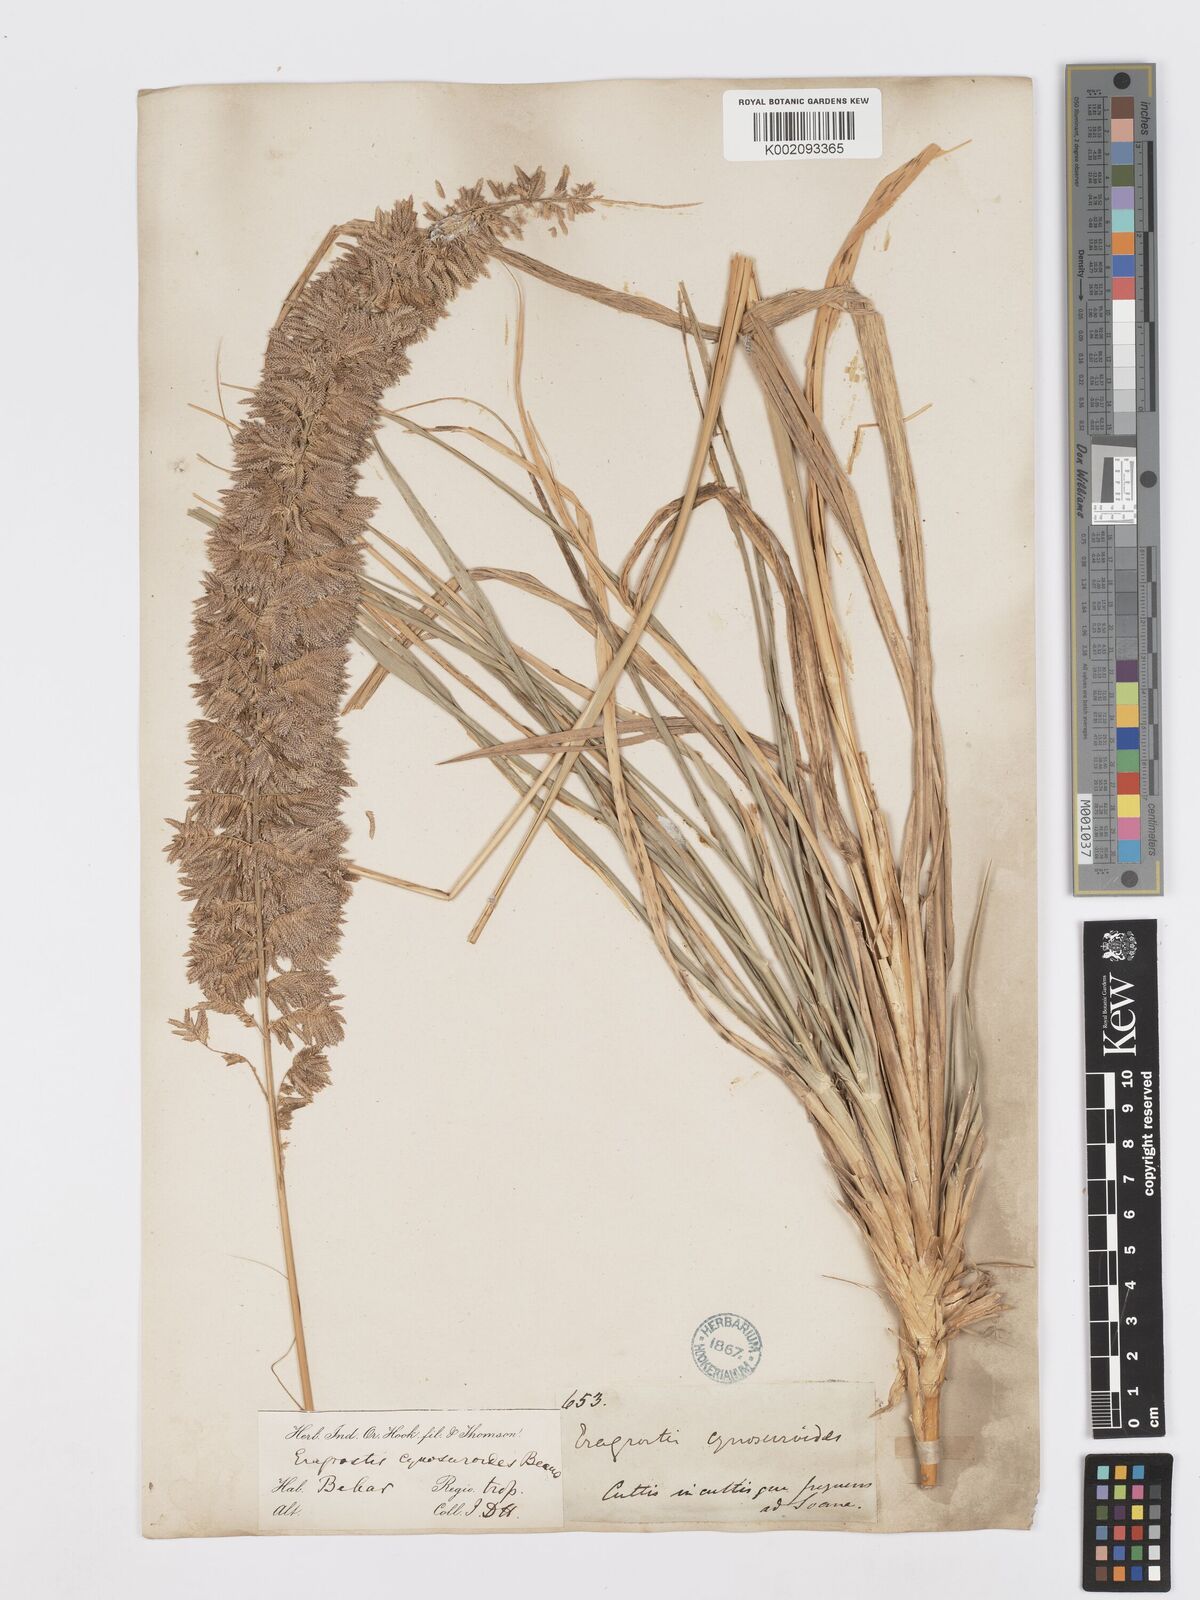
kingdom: Plantae
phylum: Tracheophyta
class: Liliopsida
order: Poales
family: Poaceae
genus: Desmostachya
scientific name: Desmostachya bipinnata
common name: Crowfoot grass
